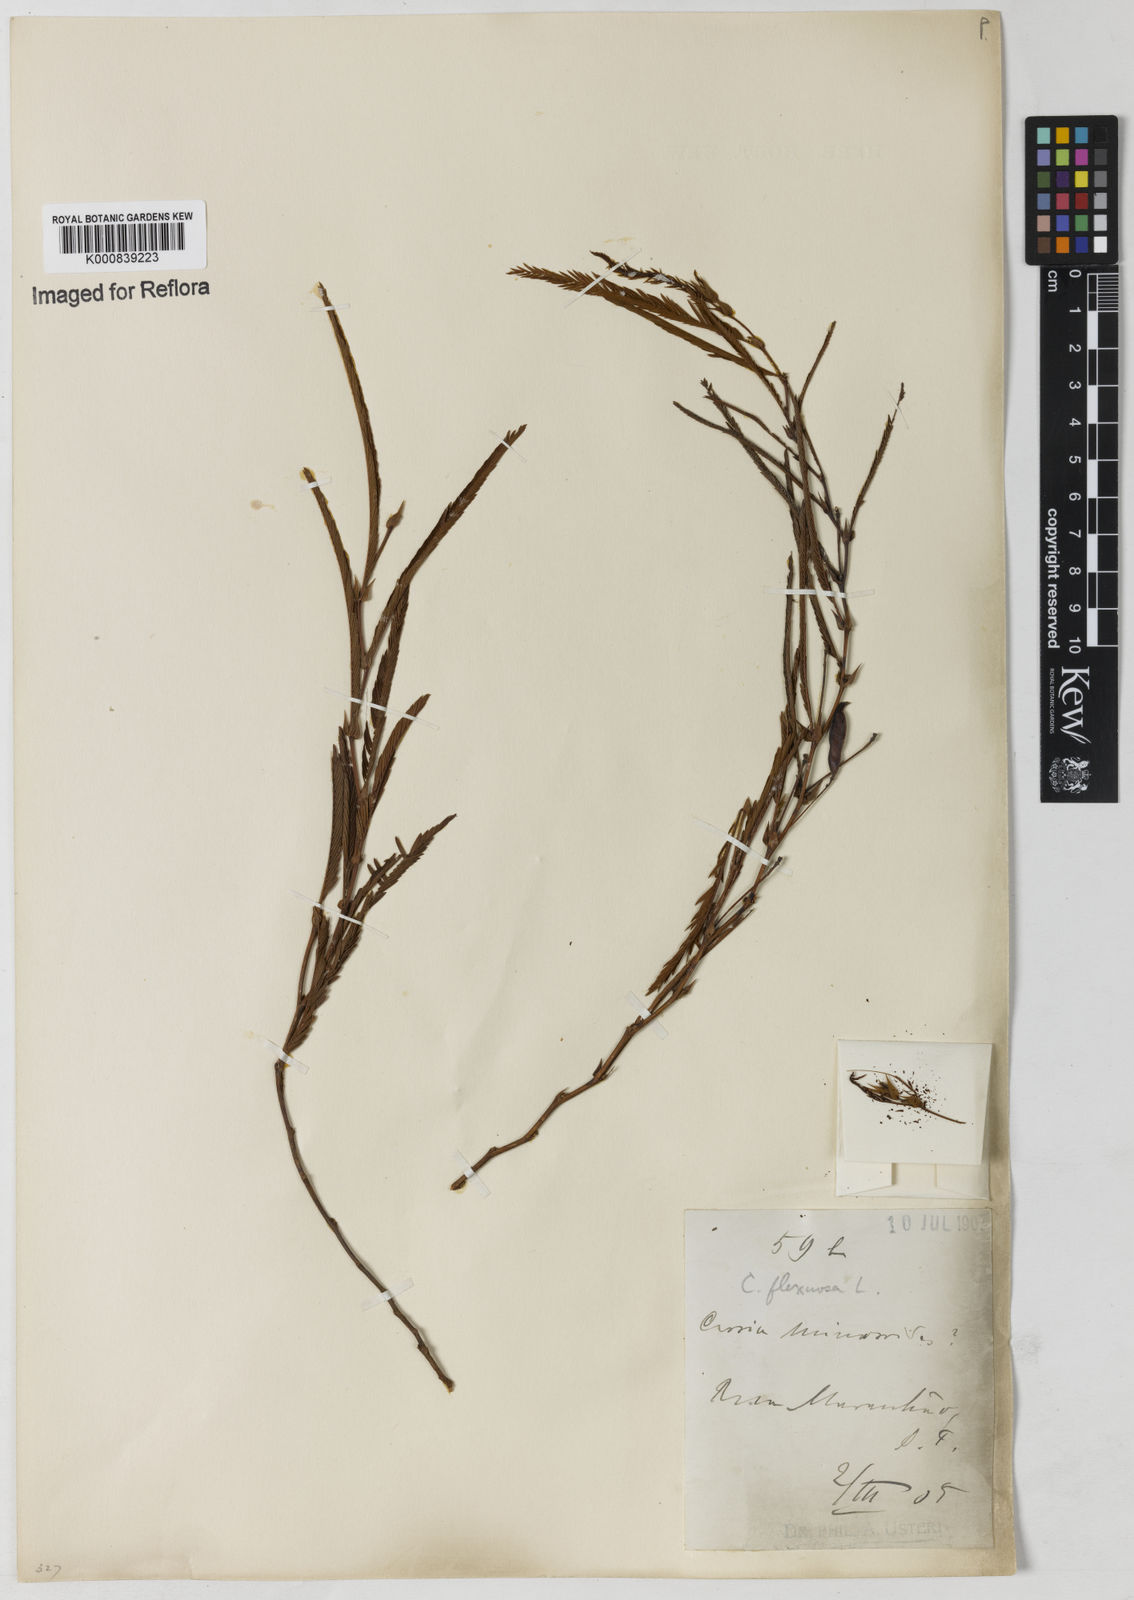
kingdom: Plantae
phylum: Tracheophyta
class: Magnoliopsida
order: Fabales
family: Fabaceae
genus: Chamaecrista
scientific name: Chamaecrista flexuosa
